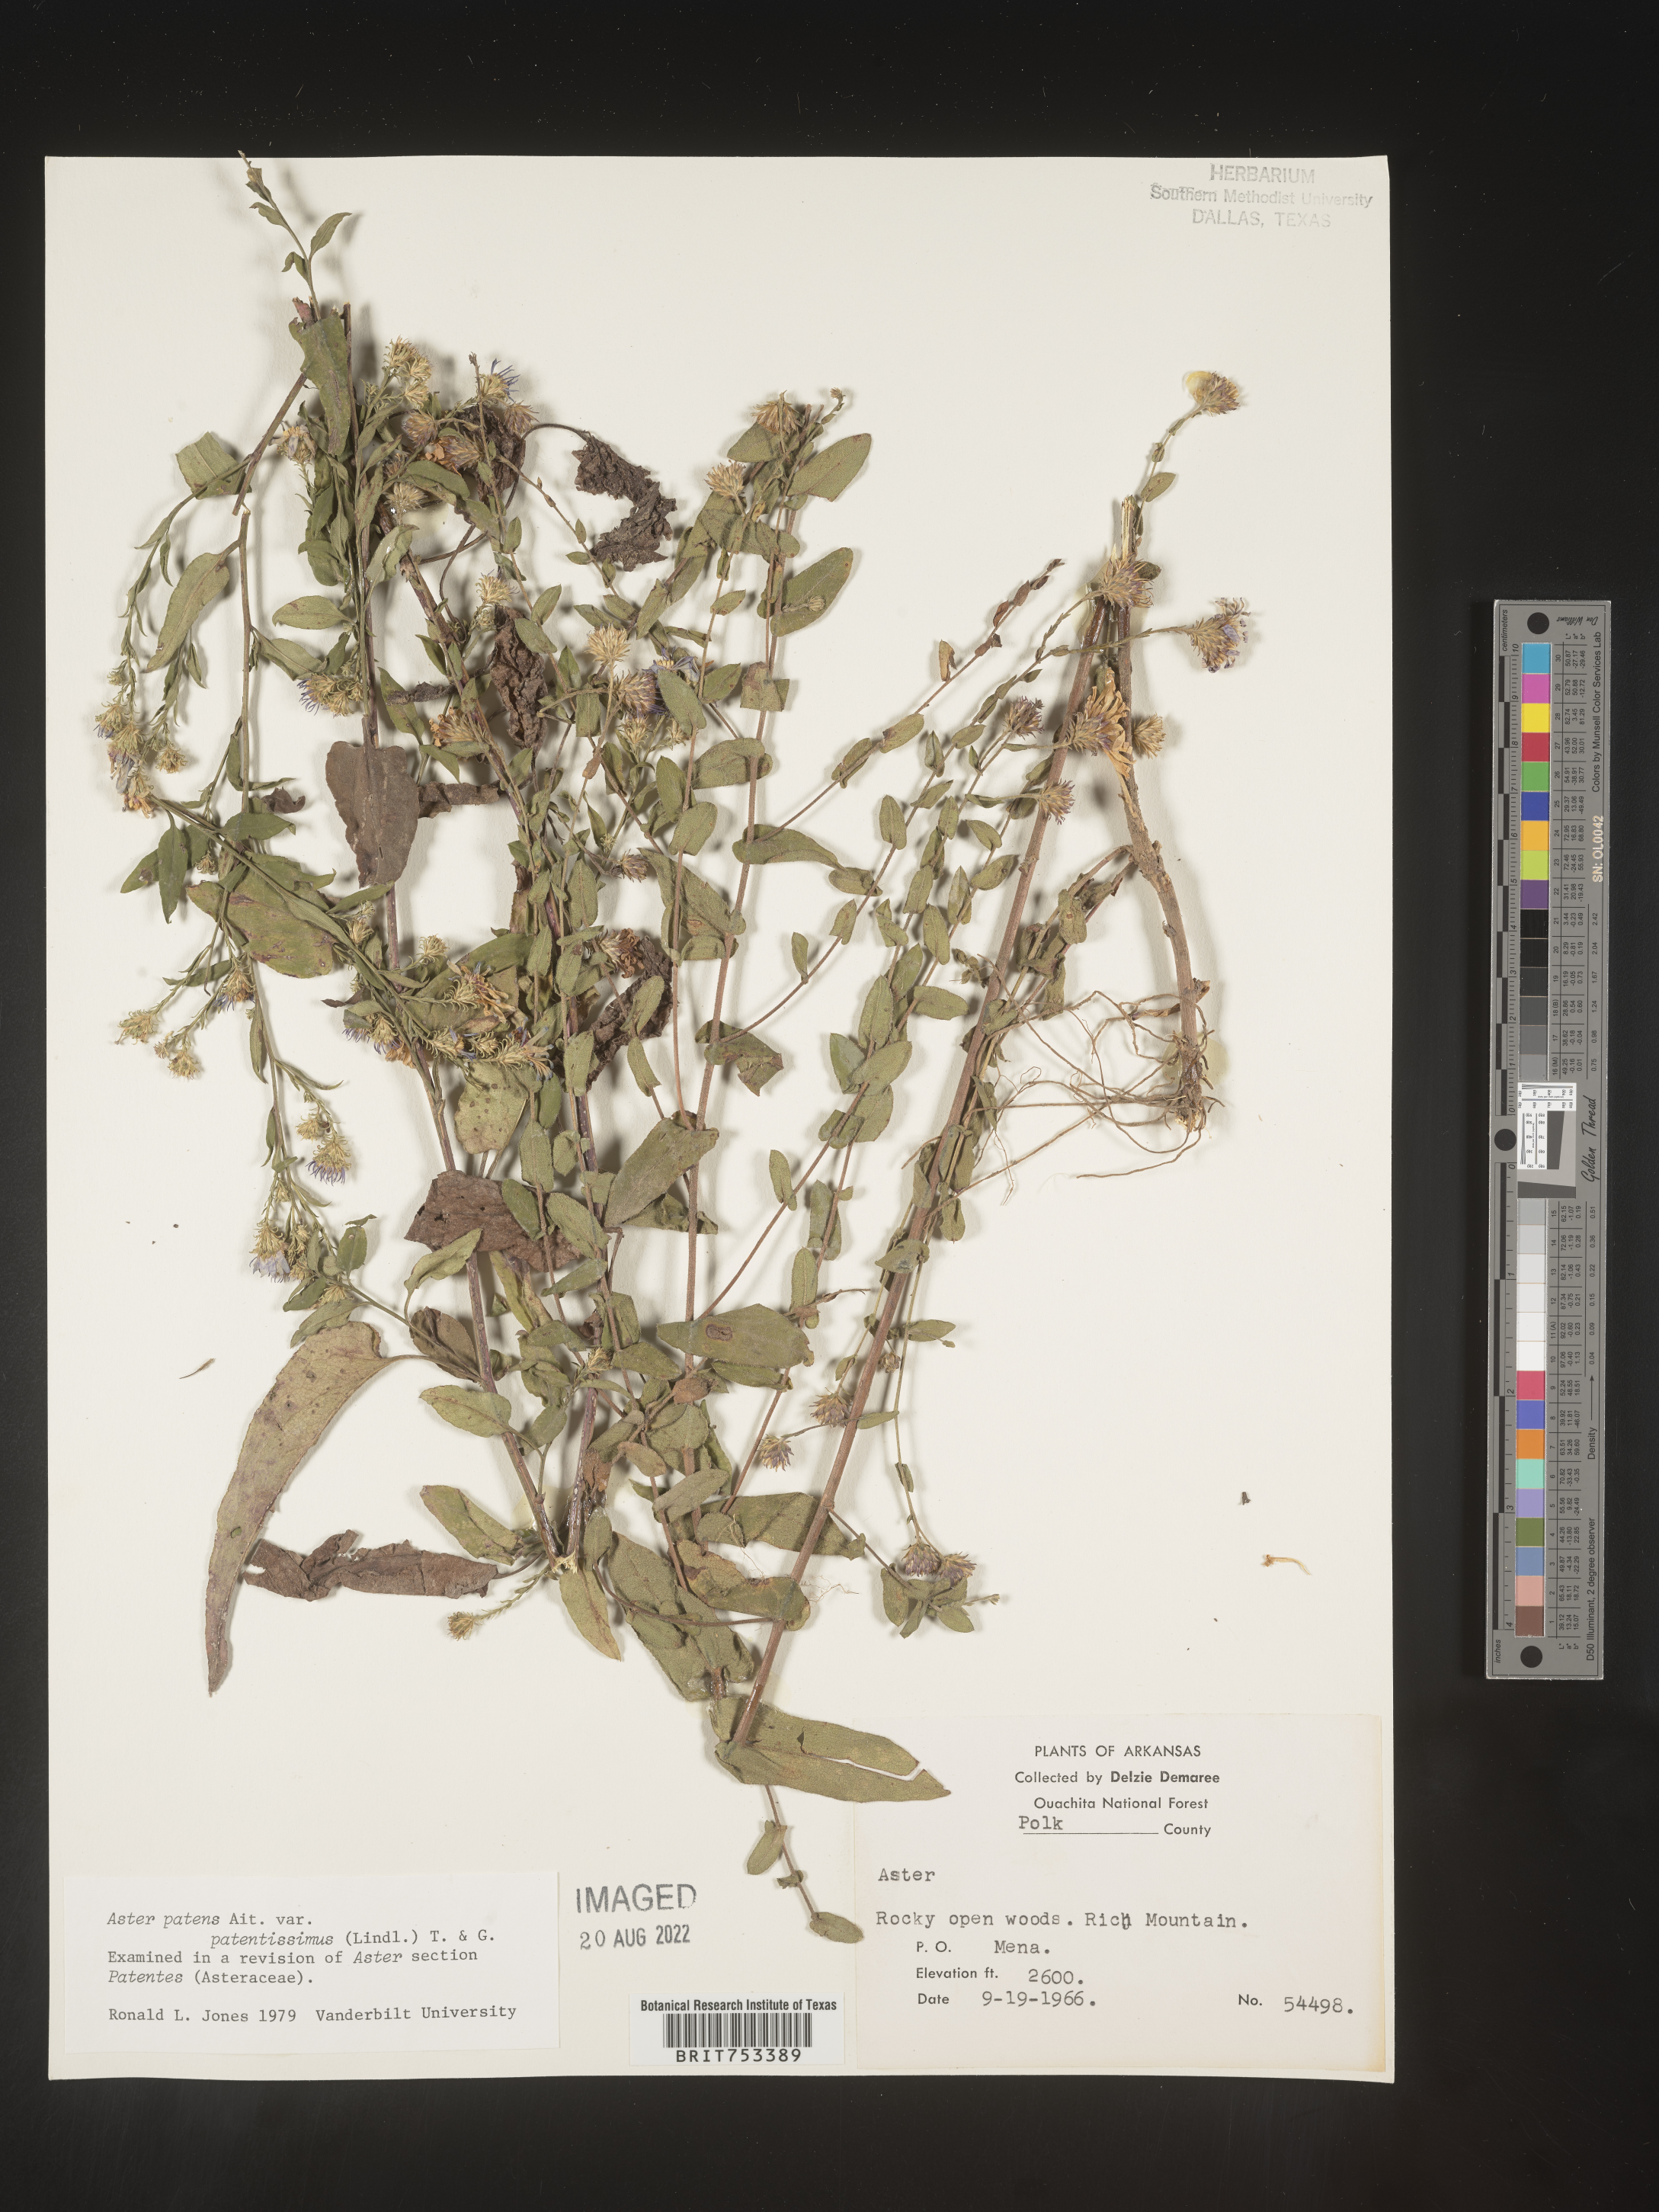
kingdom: Plantae
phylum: Tracheophyta
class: Magnoliopsida
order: Asterales
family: Asteraceae
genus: Symphyotrichum
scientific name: Symphyotrichum patens
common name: Late purple aster
